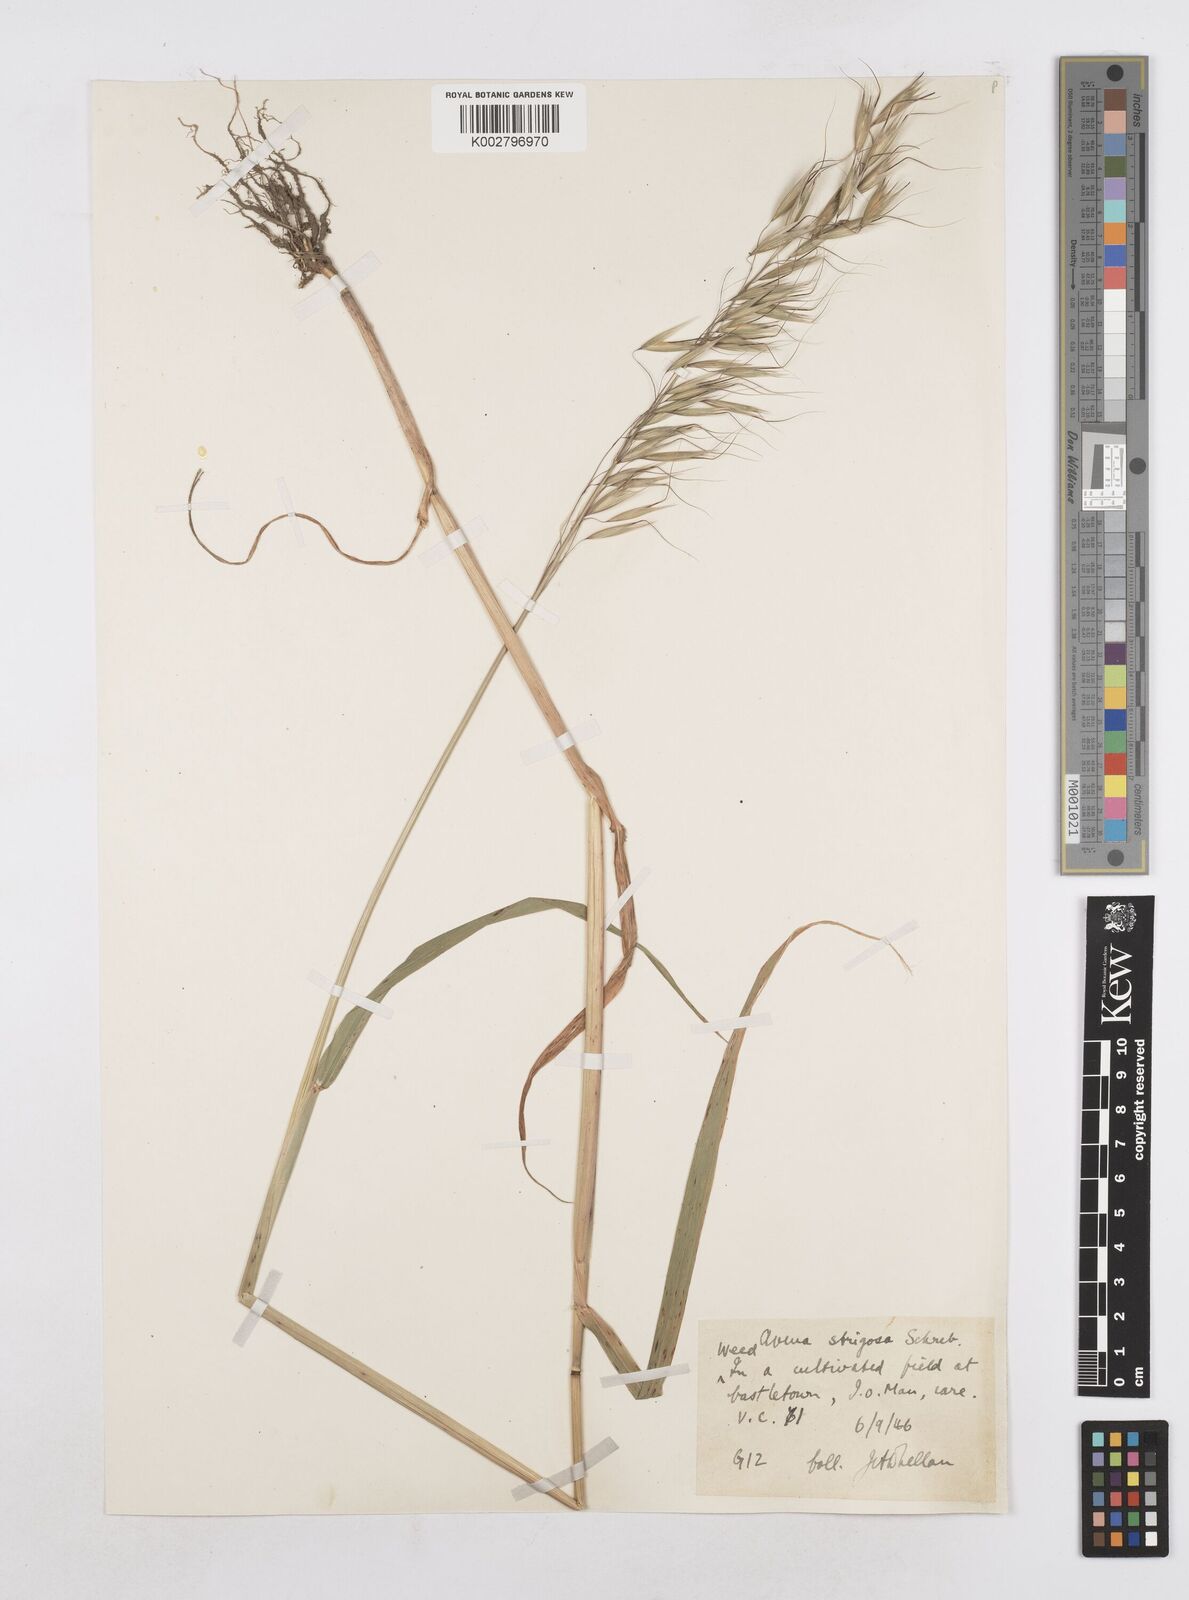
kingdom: Plantae
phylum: Tracheophyta
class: Liliopsida
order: Poales
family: Poaceae
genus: Avena
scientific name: Avena strigosa
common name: Bristle oat
